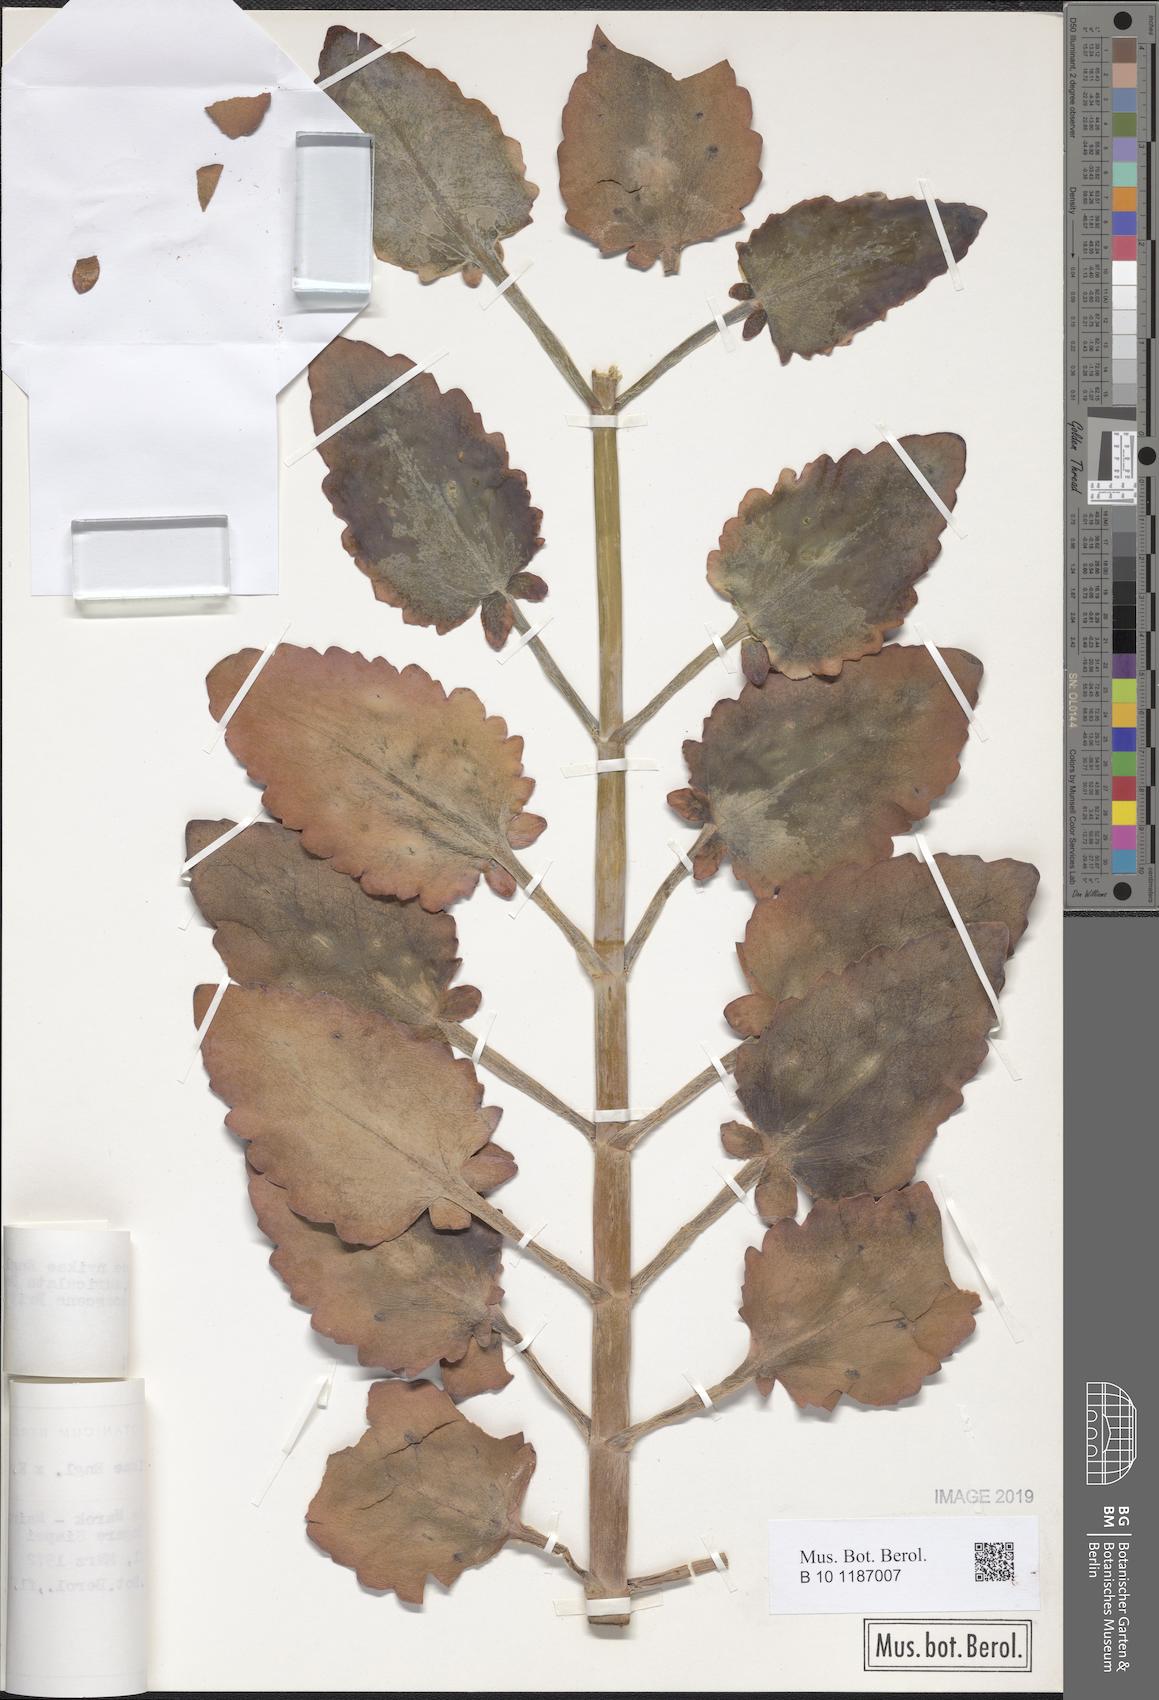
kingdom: Plantae
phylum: Tracheophyta
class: Magnoliopsida
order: Saxifragales
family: Crassulaceae
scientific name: Crassulaceae
